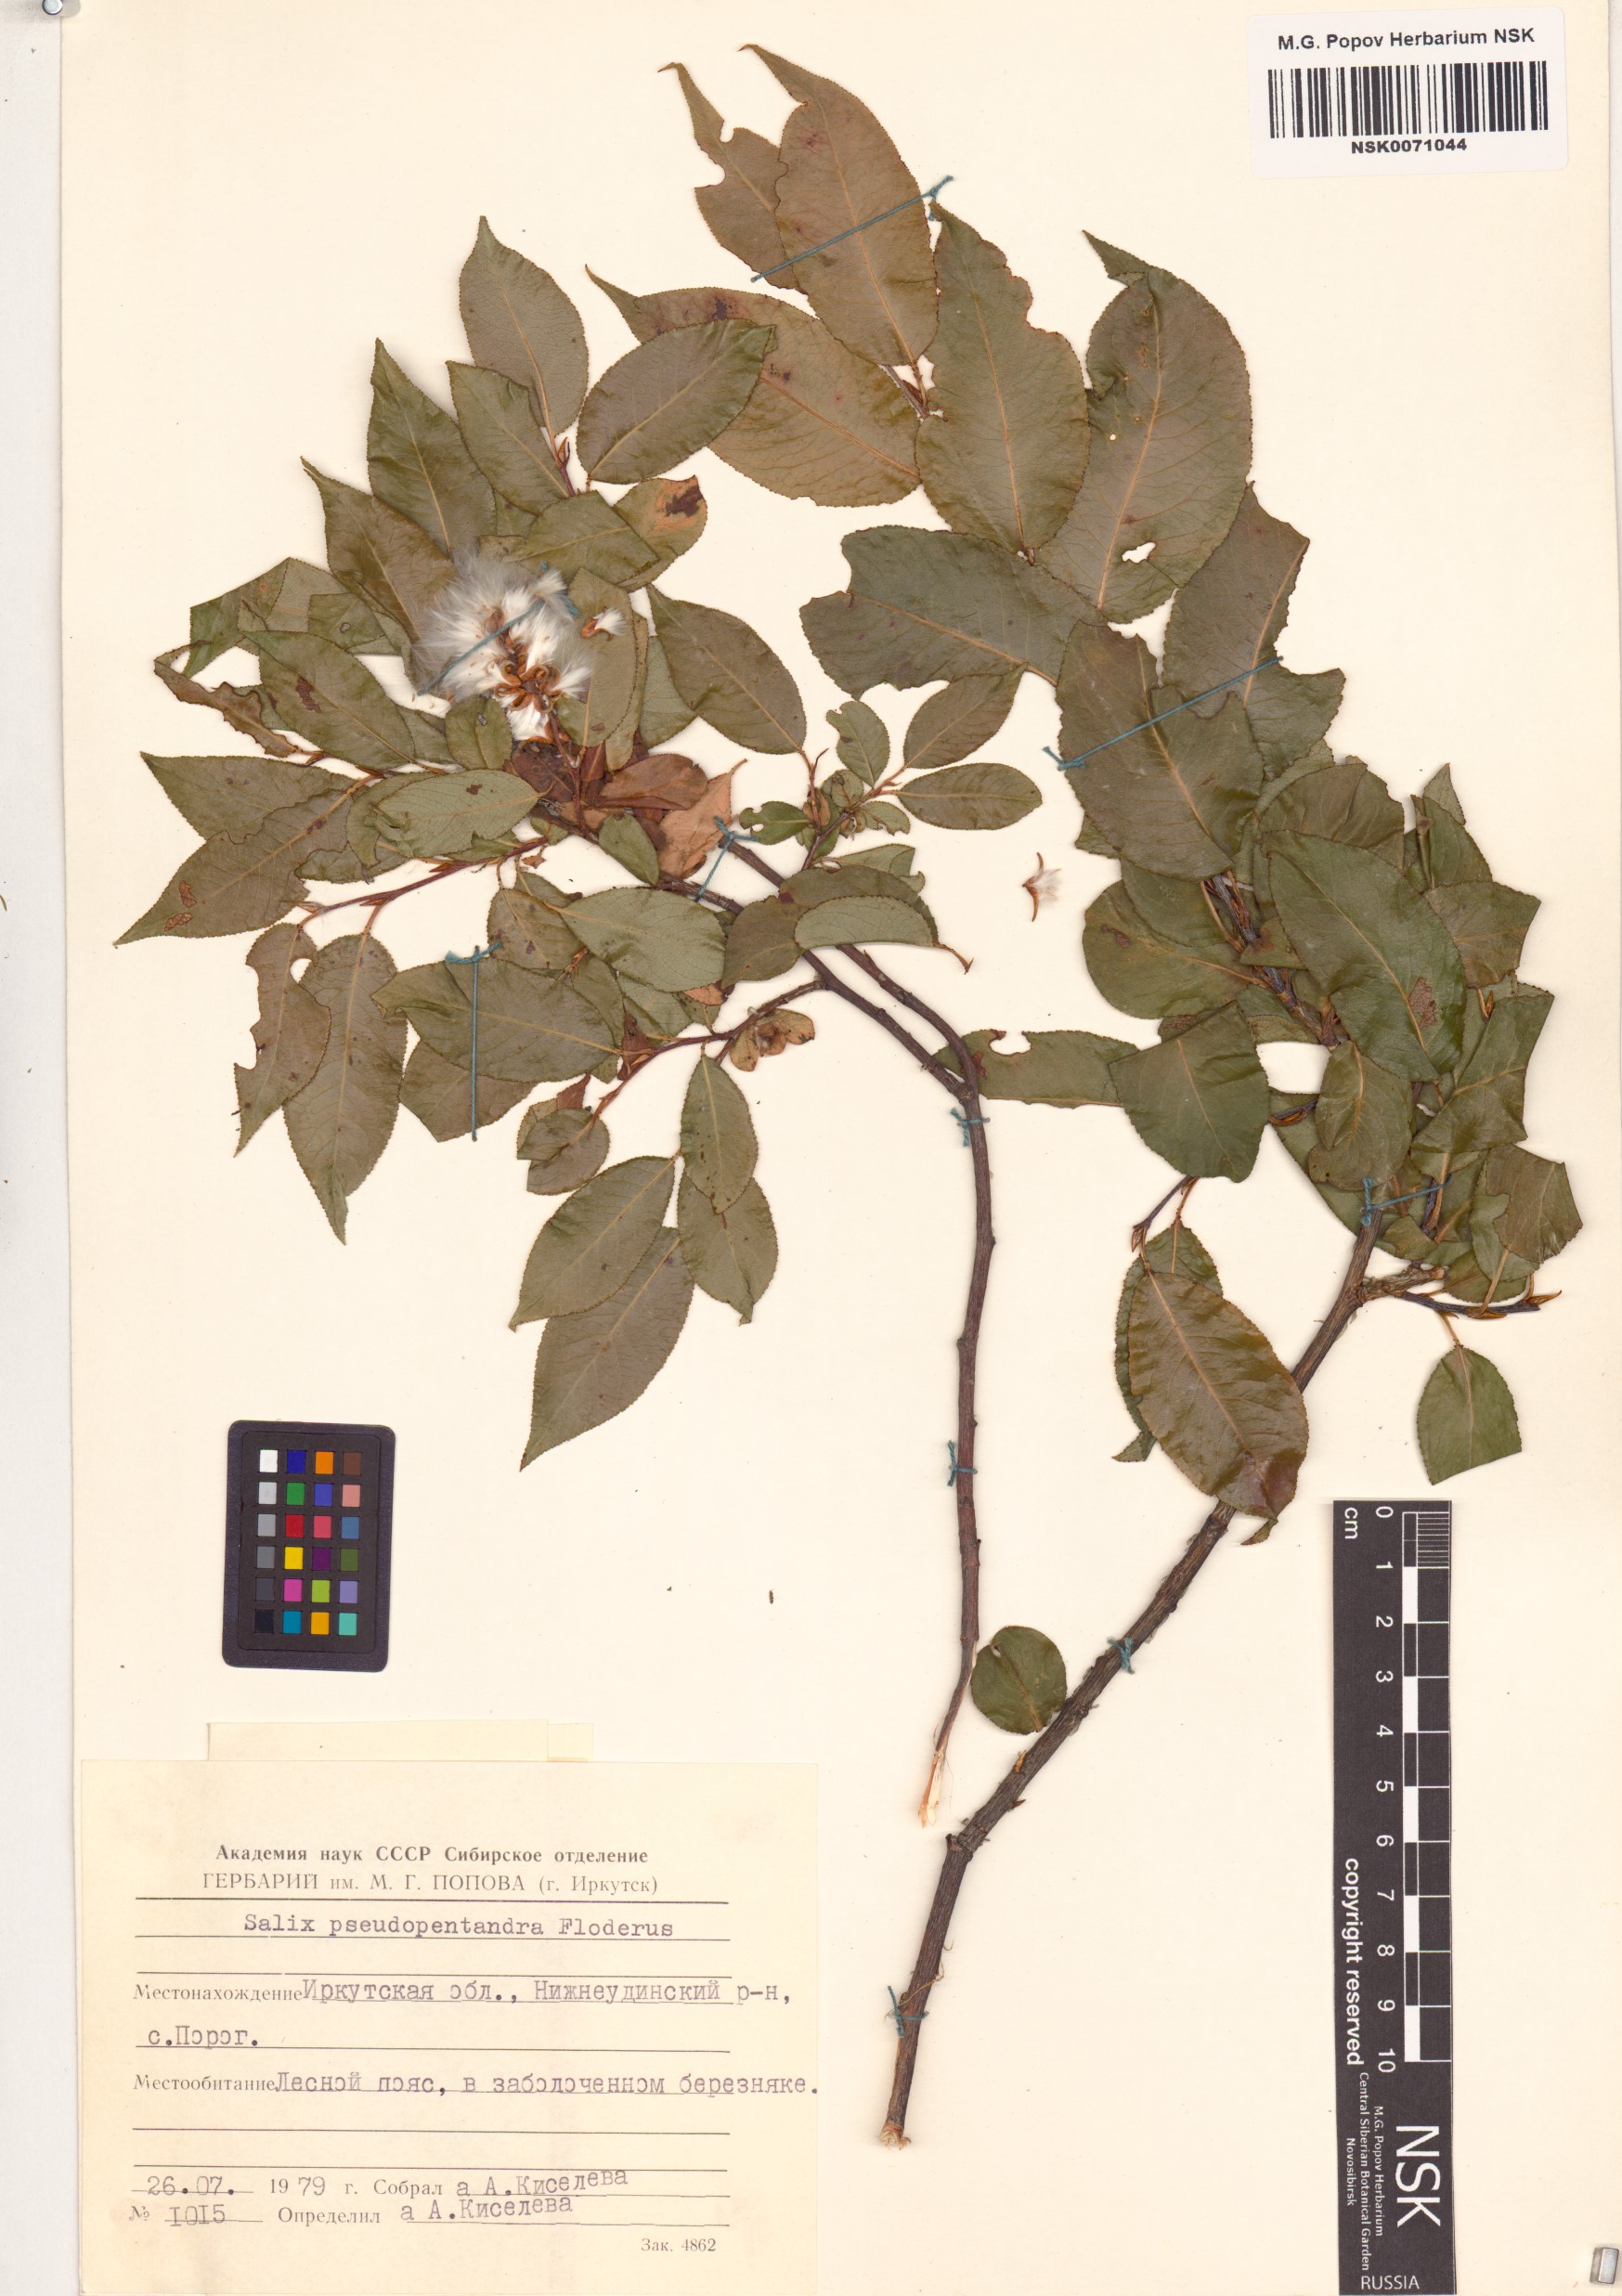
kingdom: Plantae
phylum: Tracheophyta
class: Magnoliopsida
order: Malpighiales
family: Salicaceae
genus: Salix
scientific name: Salix pseudopentandra
